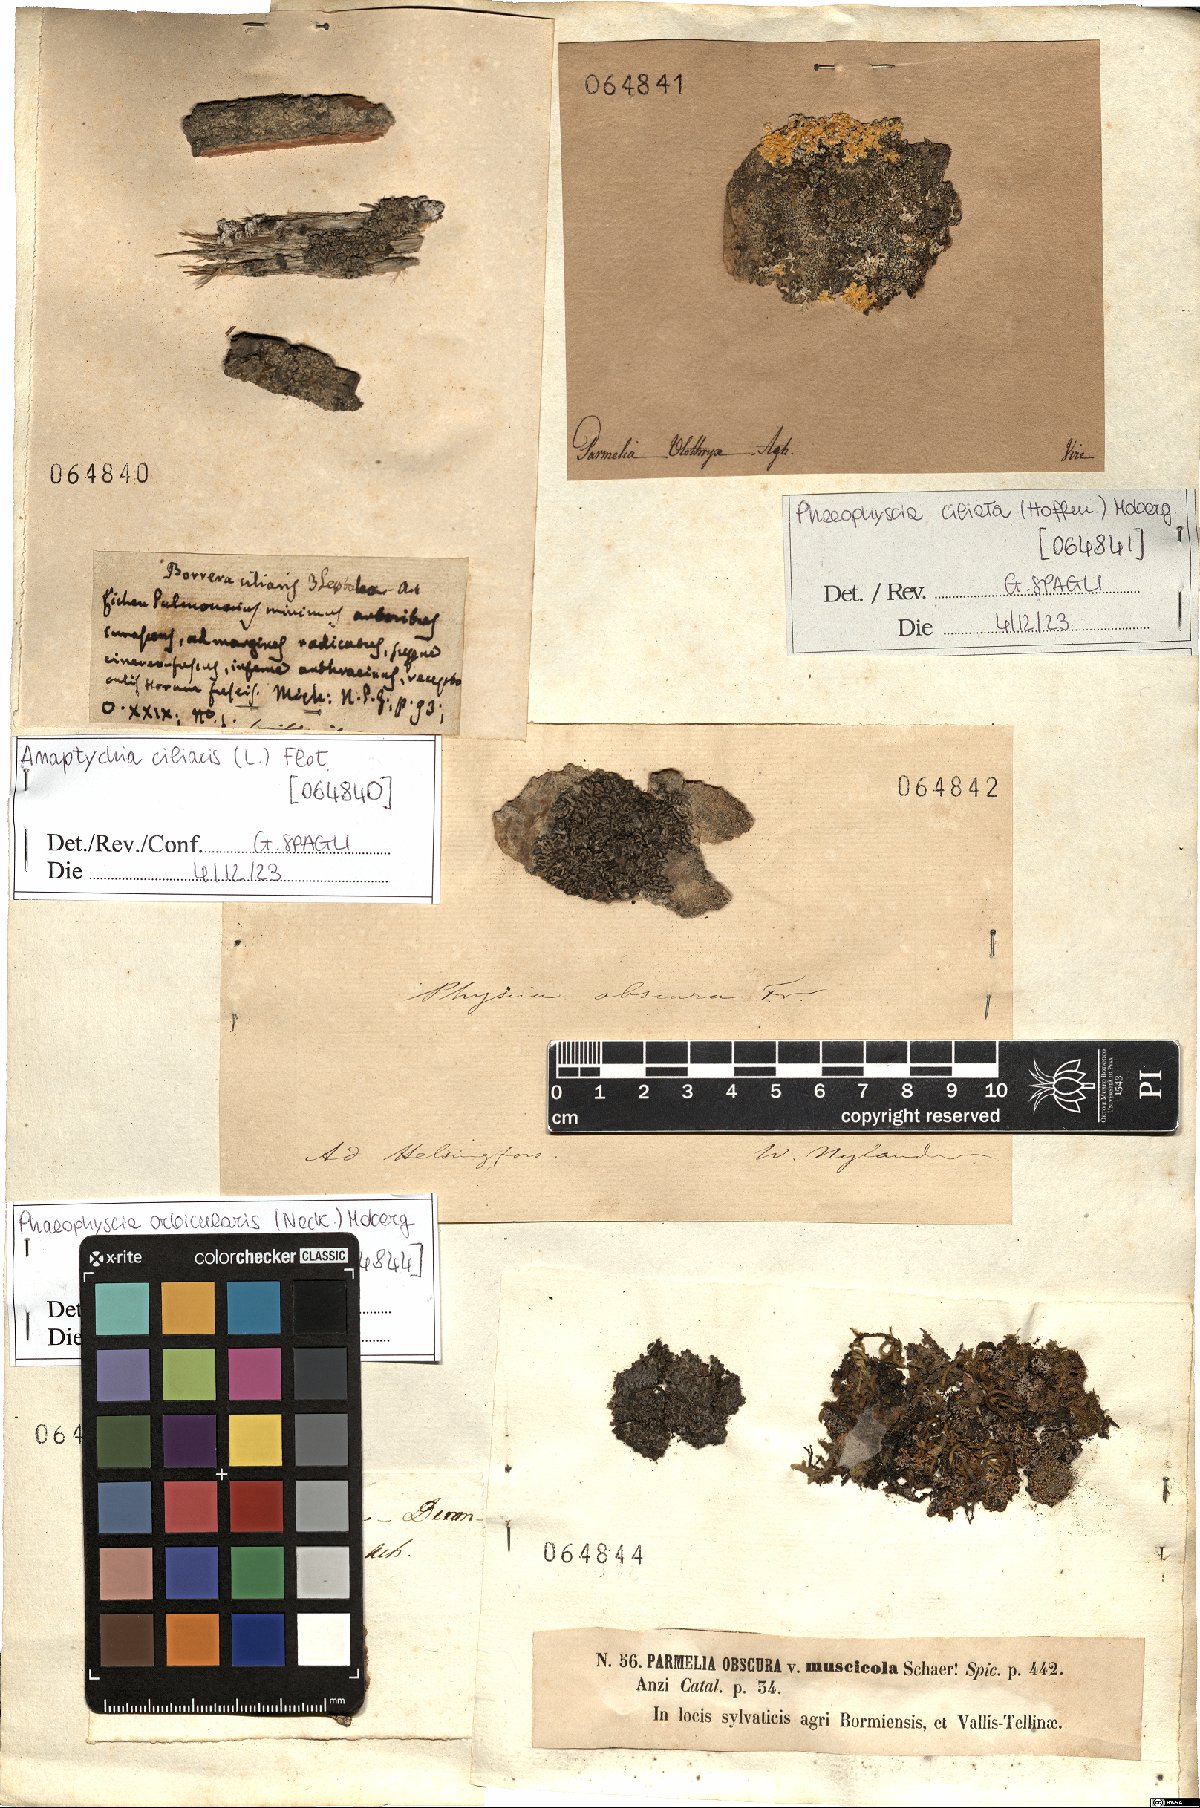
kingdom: Fungi
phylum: Ascomycota
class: Lecanoromycetes
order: Caliciales
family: Physciaceae
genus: Anaptychia
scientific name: Anaptychia ciliaris
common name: Great ciliated lichen
